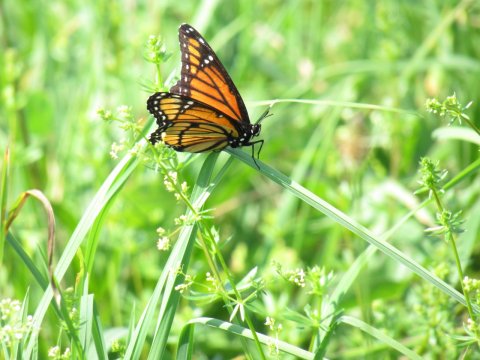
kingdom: Animalia
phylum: Arthropoda
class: Insecta
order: Lepidoptera
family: Nymphalidae
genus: Limenitis
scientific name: Limenitis archippus
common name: Viceroy
